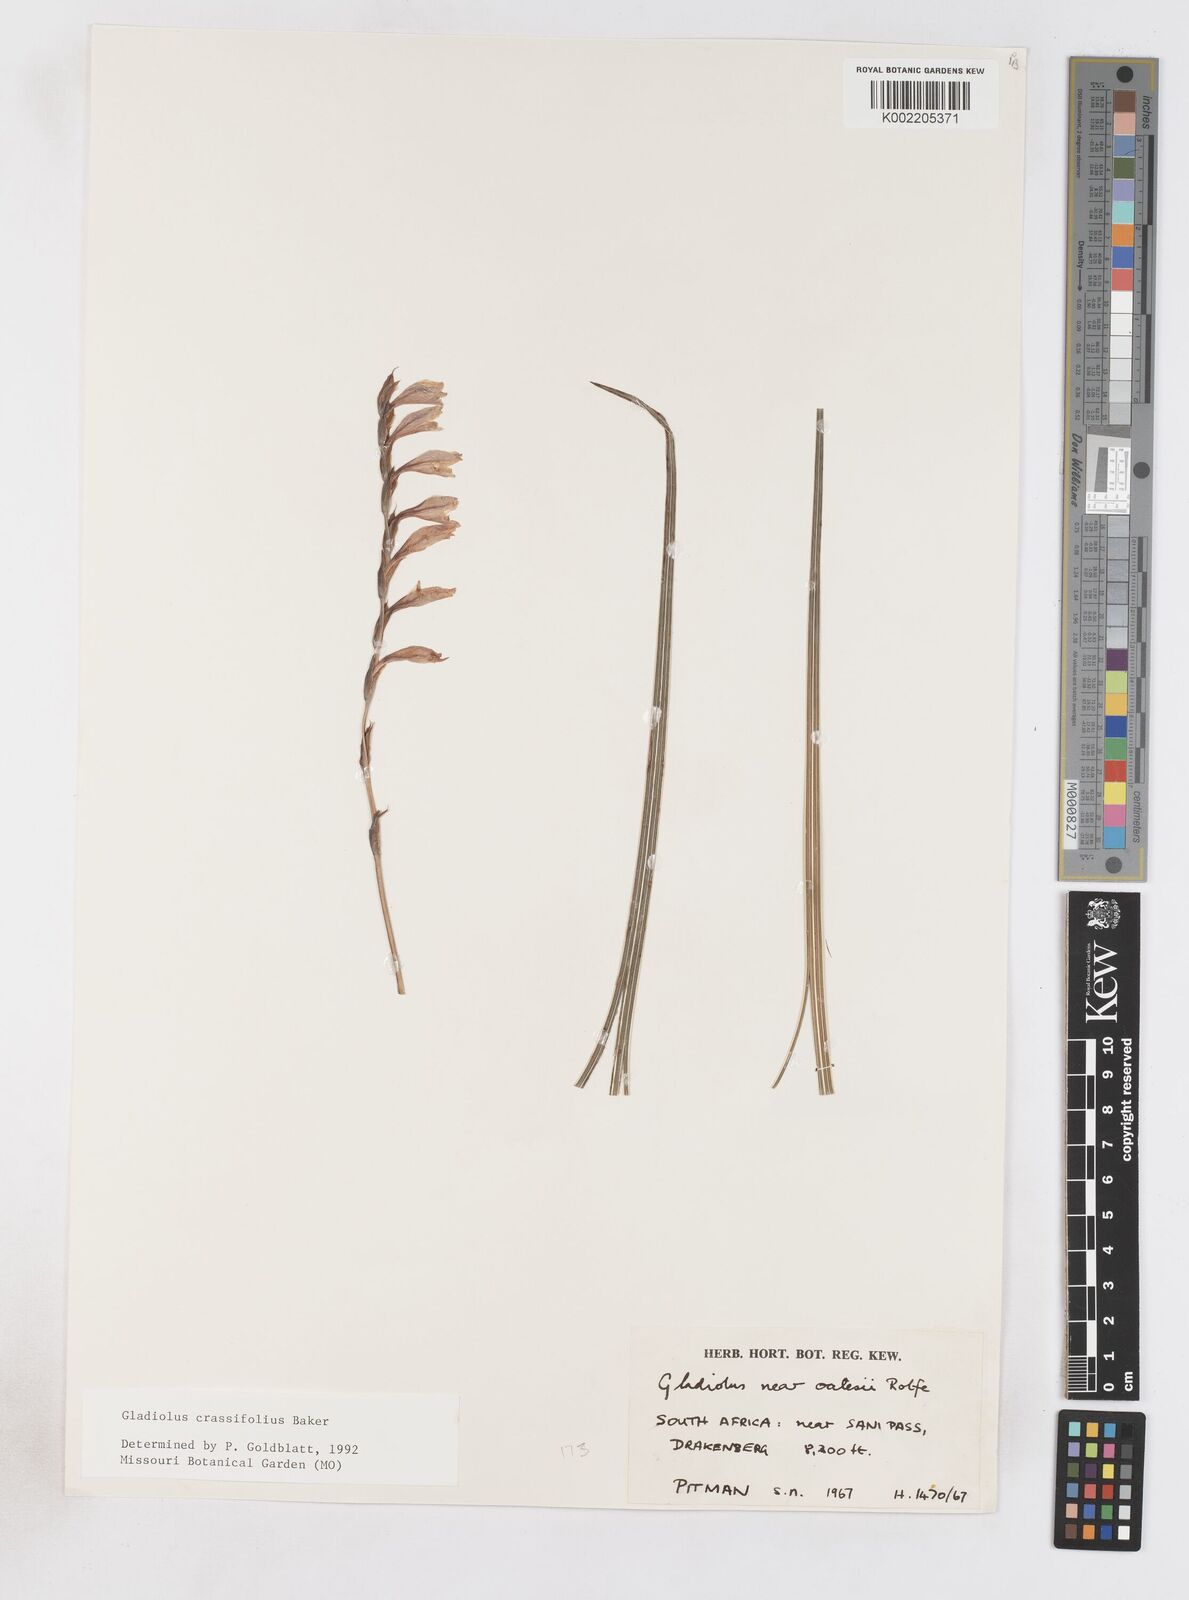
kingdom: Plantae
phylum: Tracheophyta
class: Liliopsida
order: Asparagales
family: Iridaceae
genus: Gladiolus
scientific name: Gladiolus crassifolius
